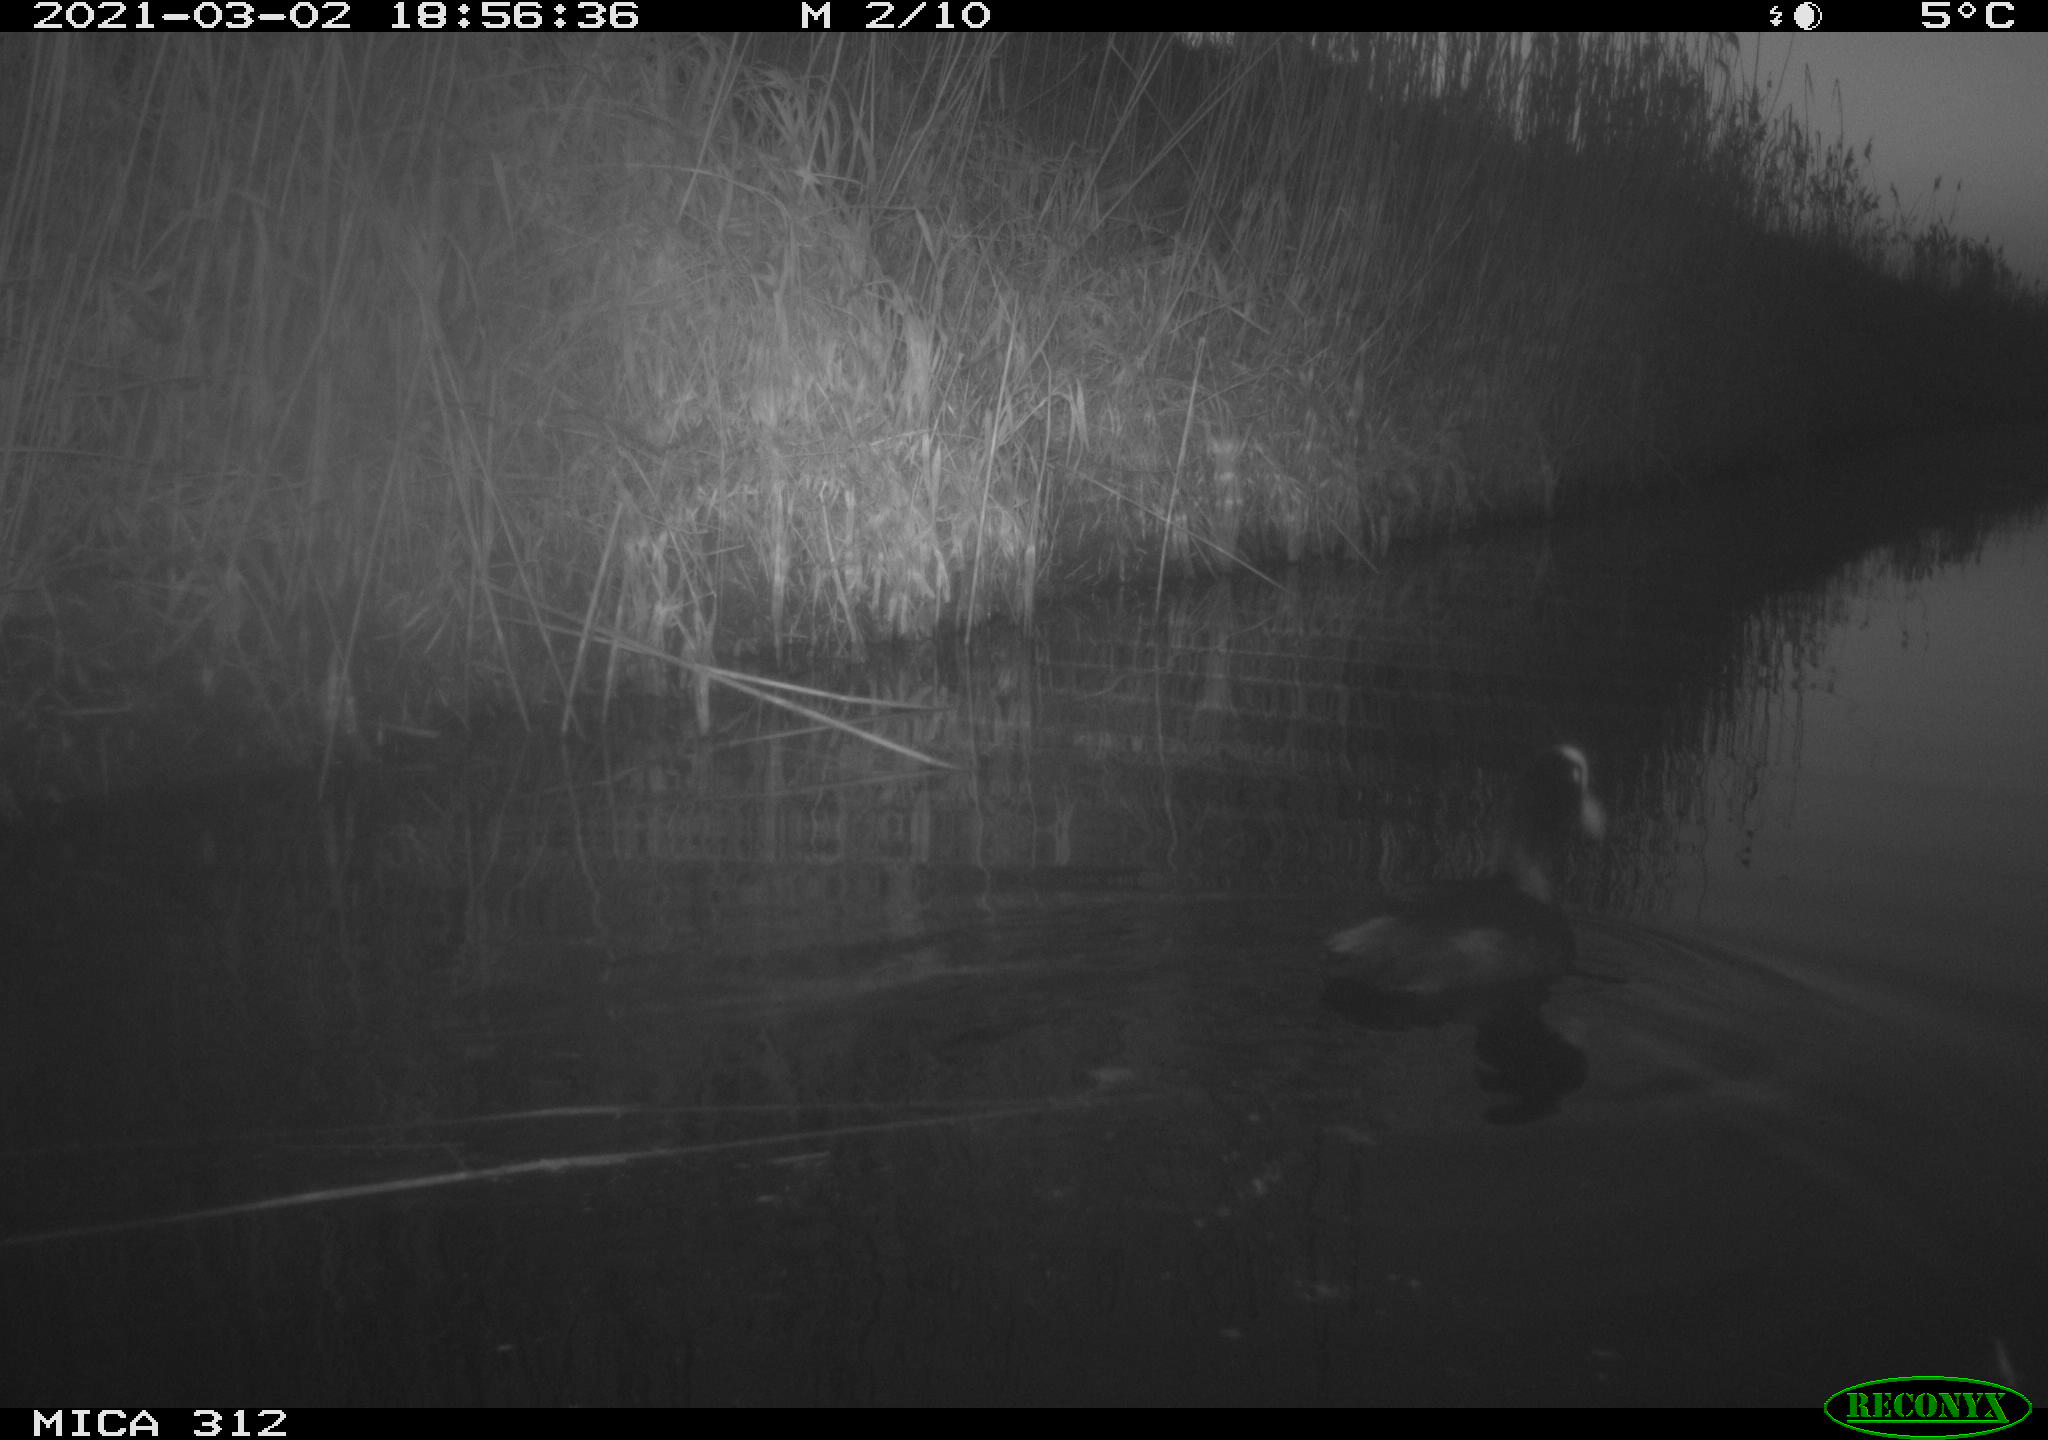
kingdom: Animalia
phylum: Chordata
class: Aves
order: Gruiformes
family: Rallidae
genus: Fulica
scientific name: Fulica atra
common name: Eurasian coot
